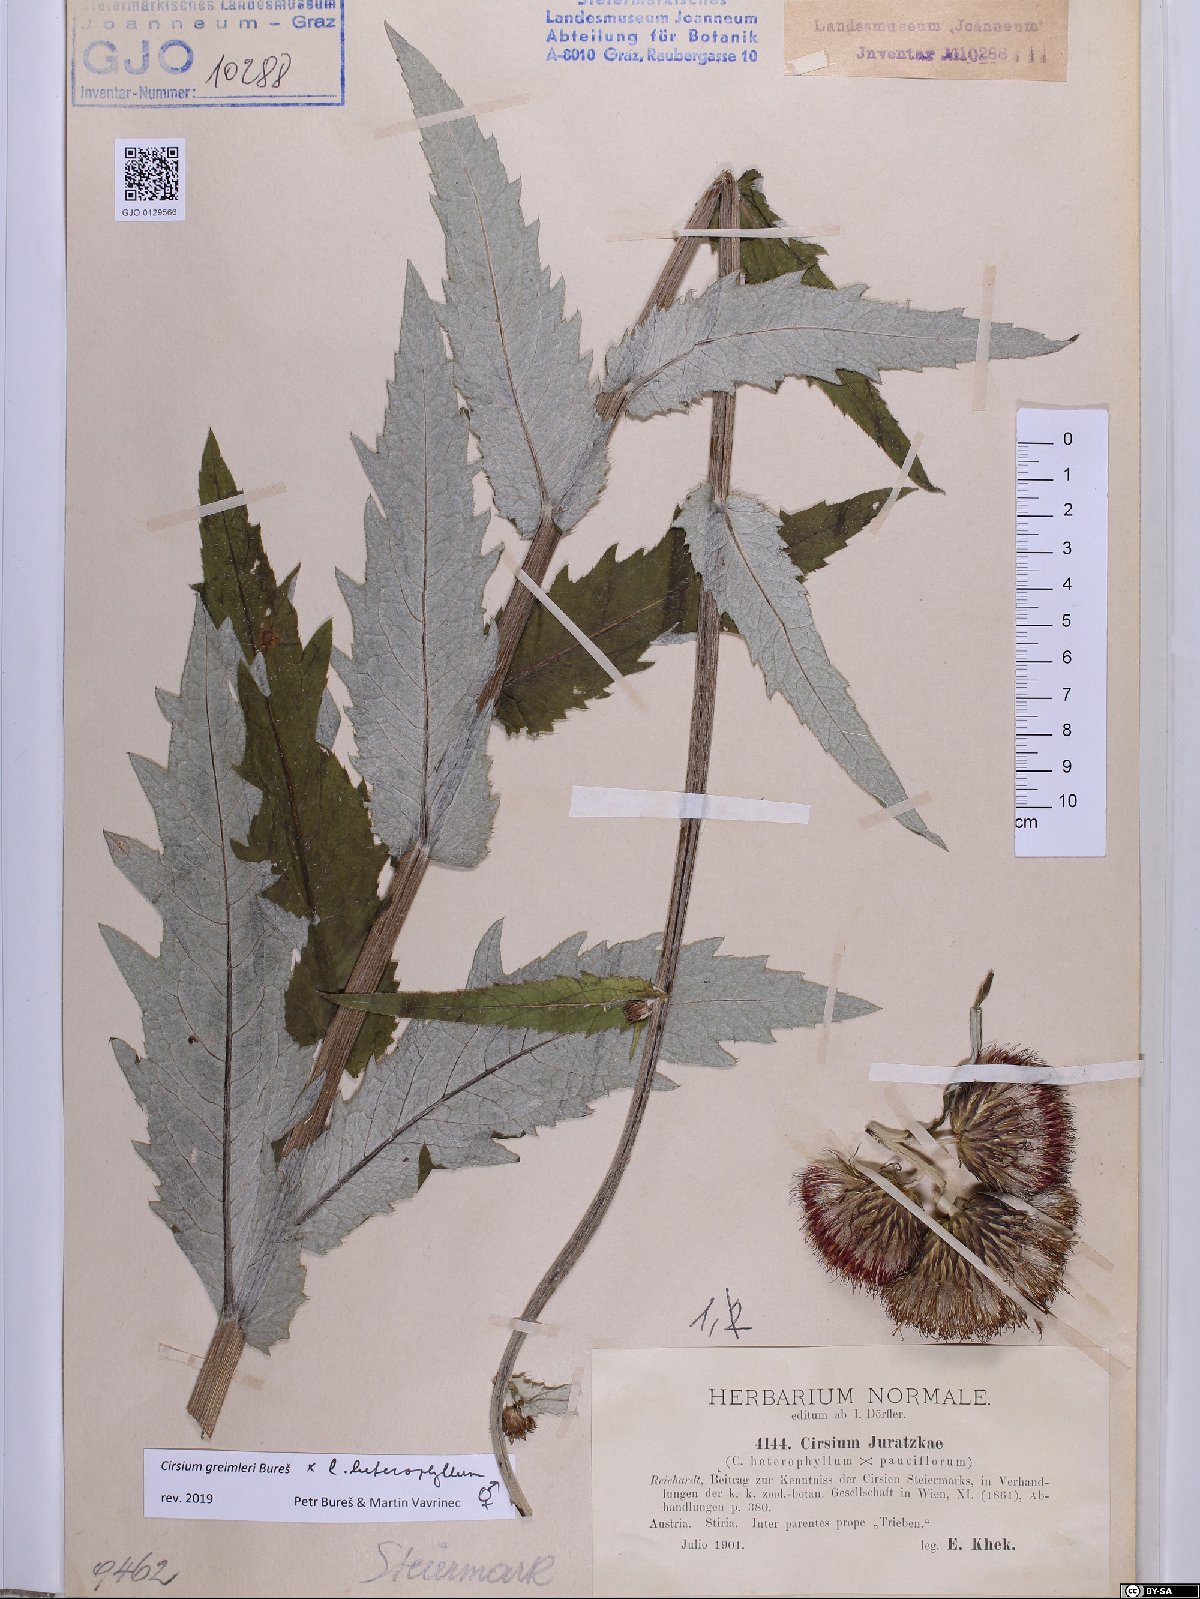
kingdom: Plantae
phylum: Tracheophyta
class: Magnoliopsida
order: Asterales
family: Asteraceae
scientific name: Asteraceae
